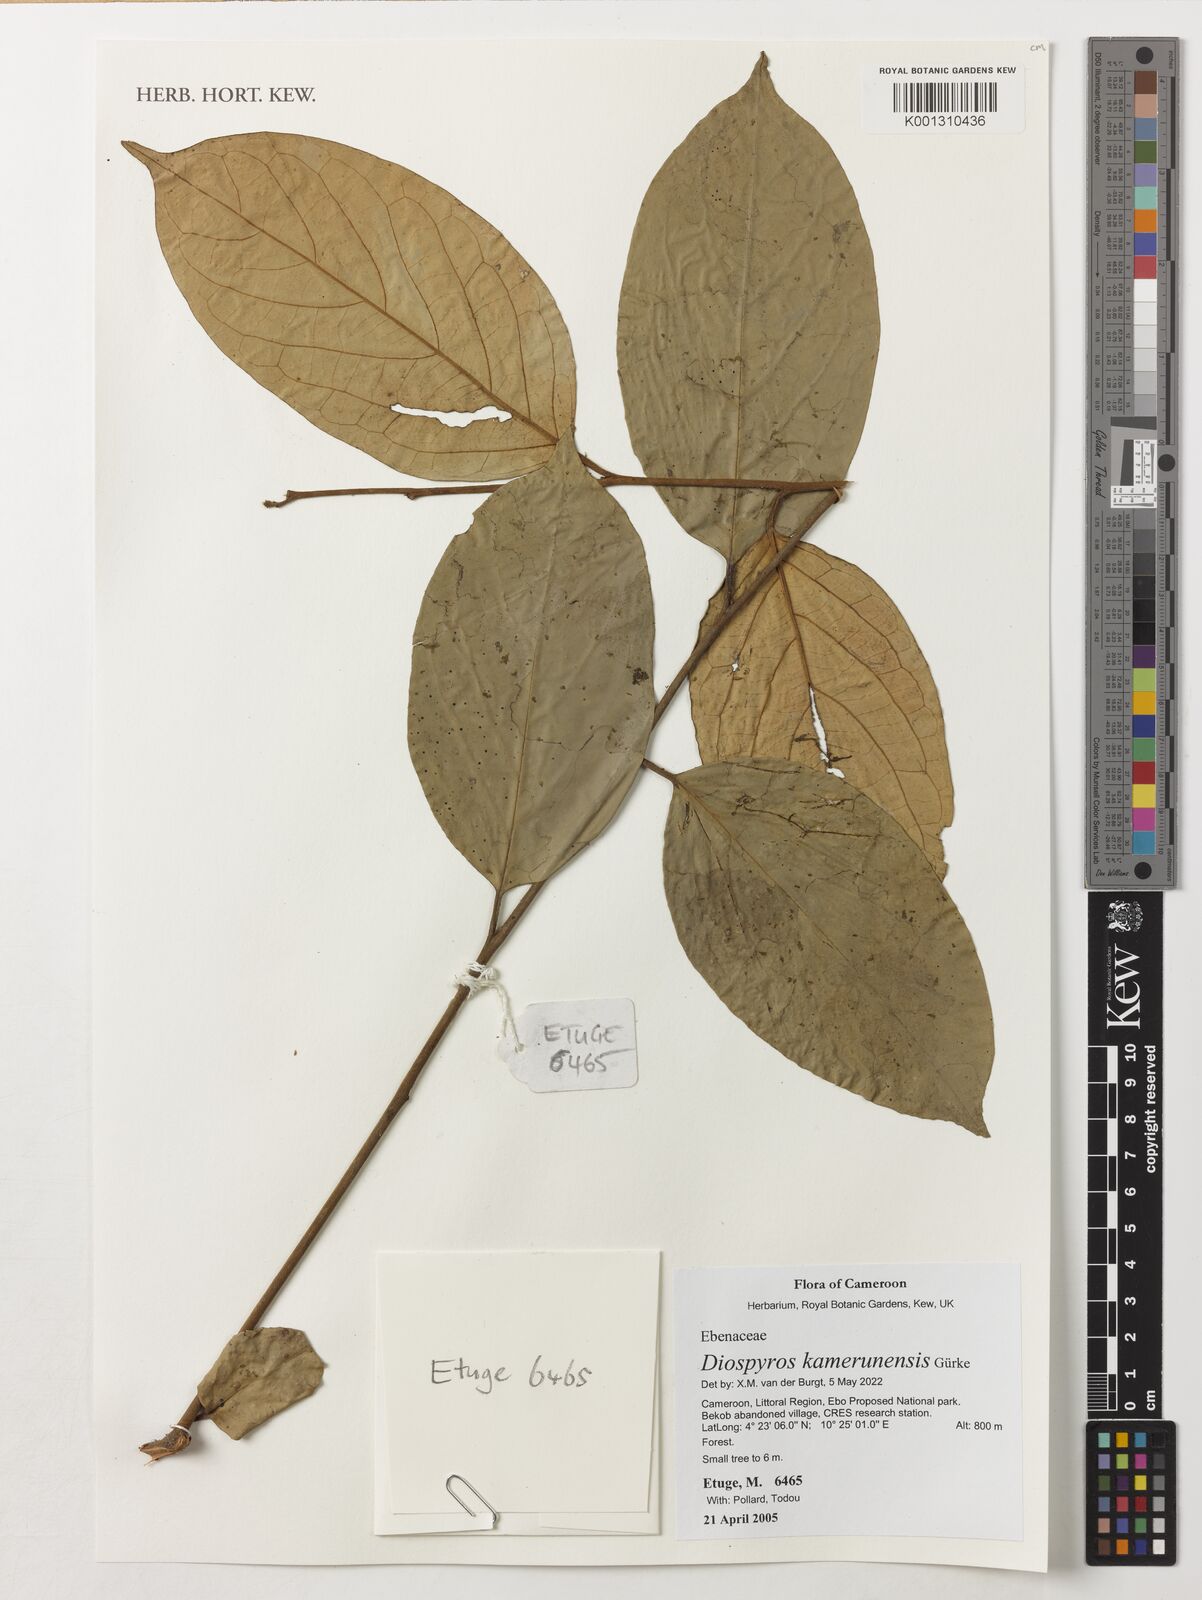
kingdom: Plantae
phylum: Tracheophyta
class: Magnoliopsida
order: Ericales
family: Ebenaceae
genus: Diospyros
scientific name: Diospyros kamerunensis
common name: African ebony
